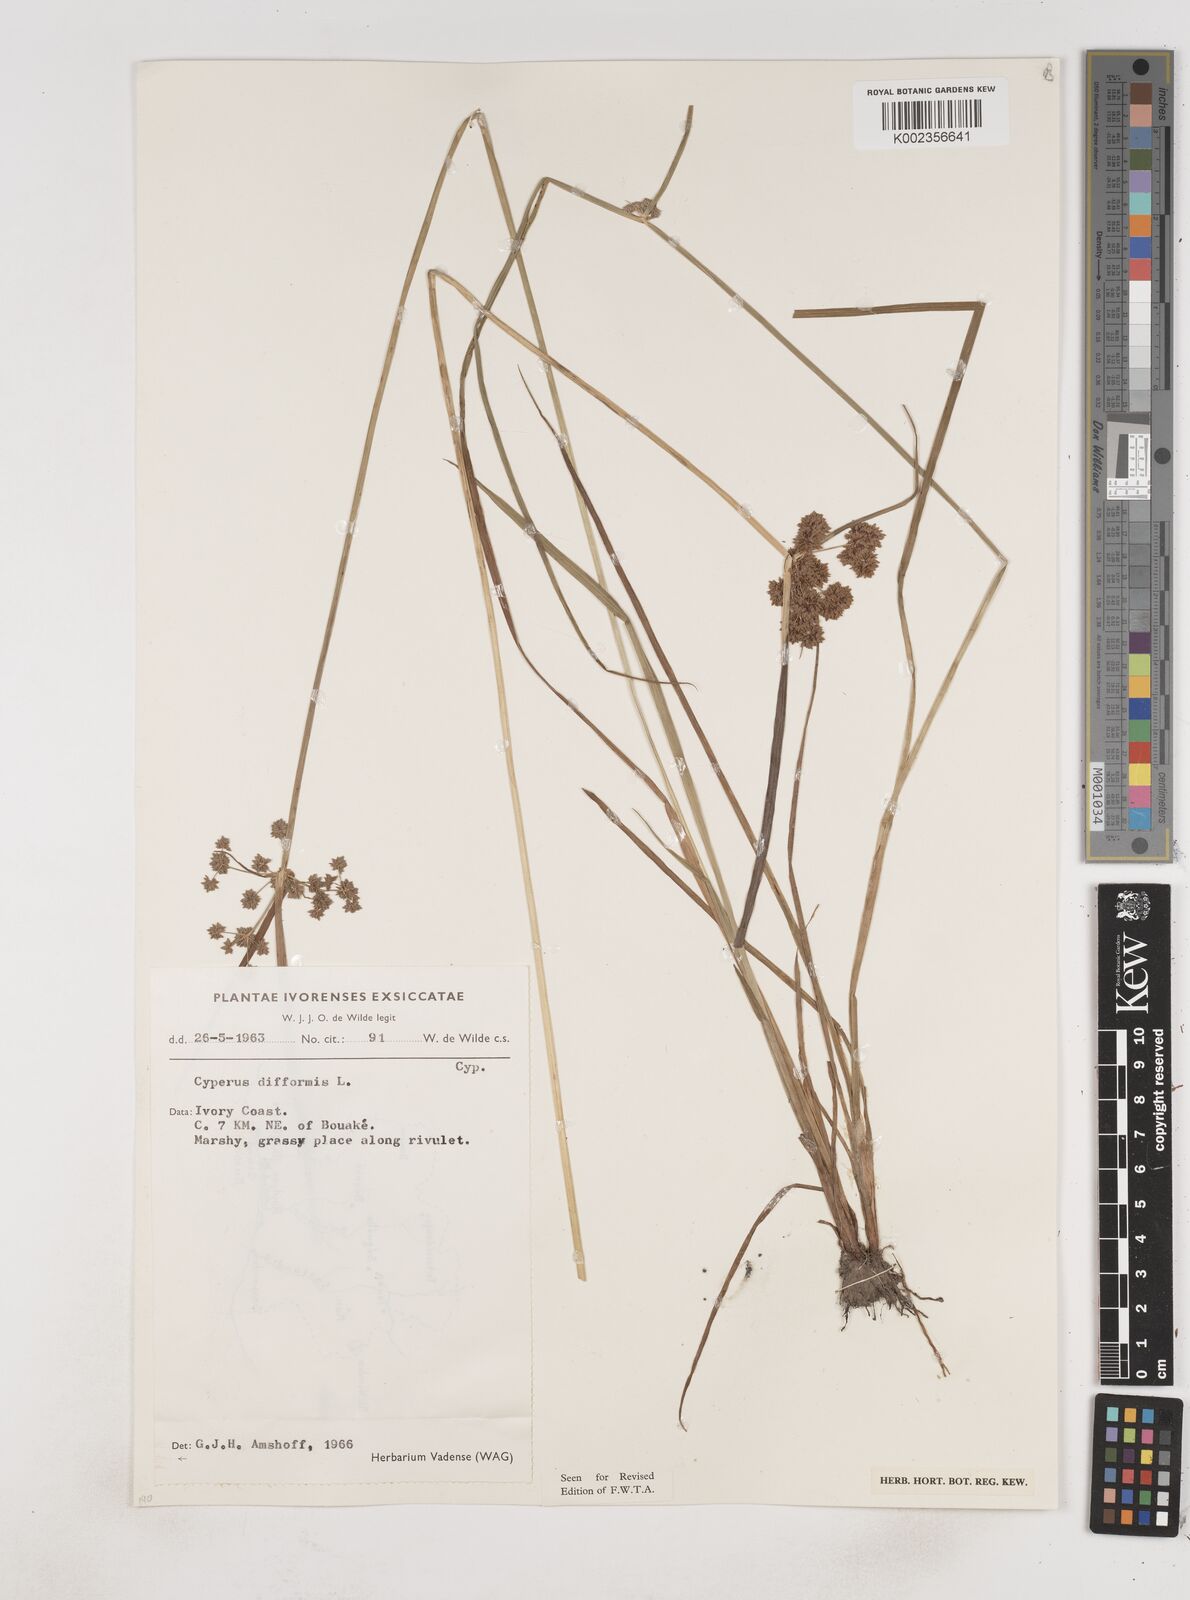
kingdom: Plantae
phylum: Tracheophyta
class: Liliopsida
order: Poales
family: Cyperaceae
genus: Cyperus
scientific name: Cyperus difformis
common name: Variable flatsedge
